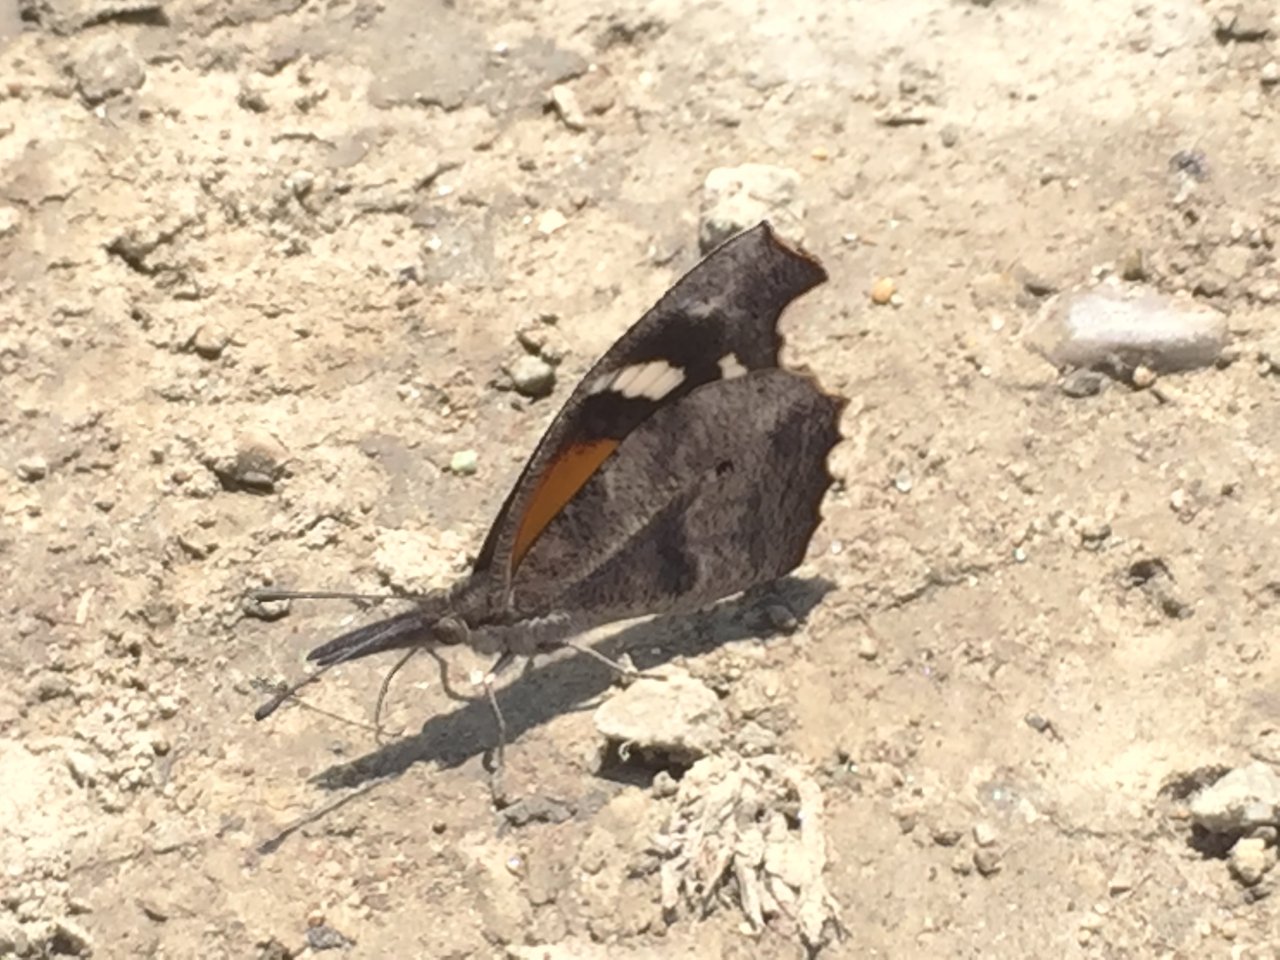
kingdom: Animalia
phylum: Arthropoda
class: Insecta
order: Lepidoptera
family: Nymphalidae
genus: Libytheana
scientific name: Libytheana carinenta
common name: American Snout
